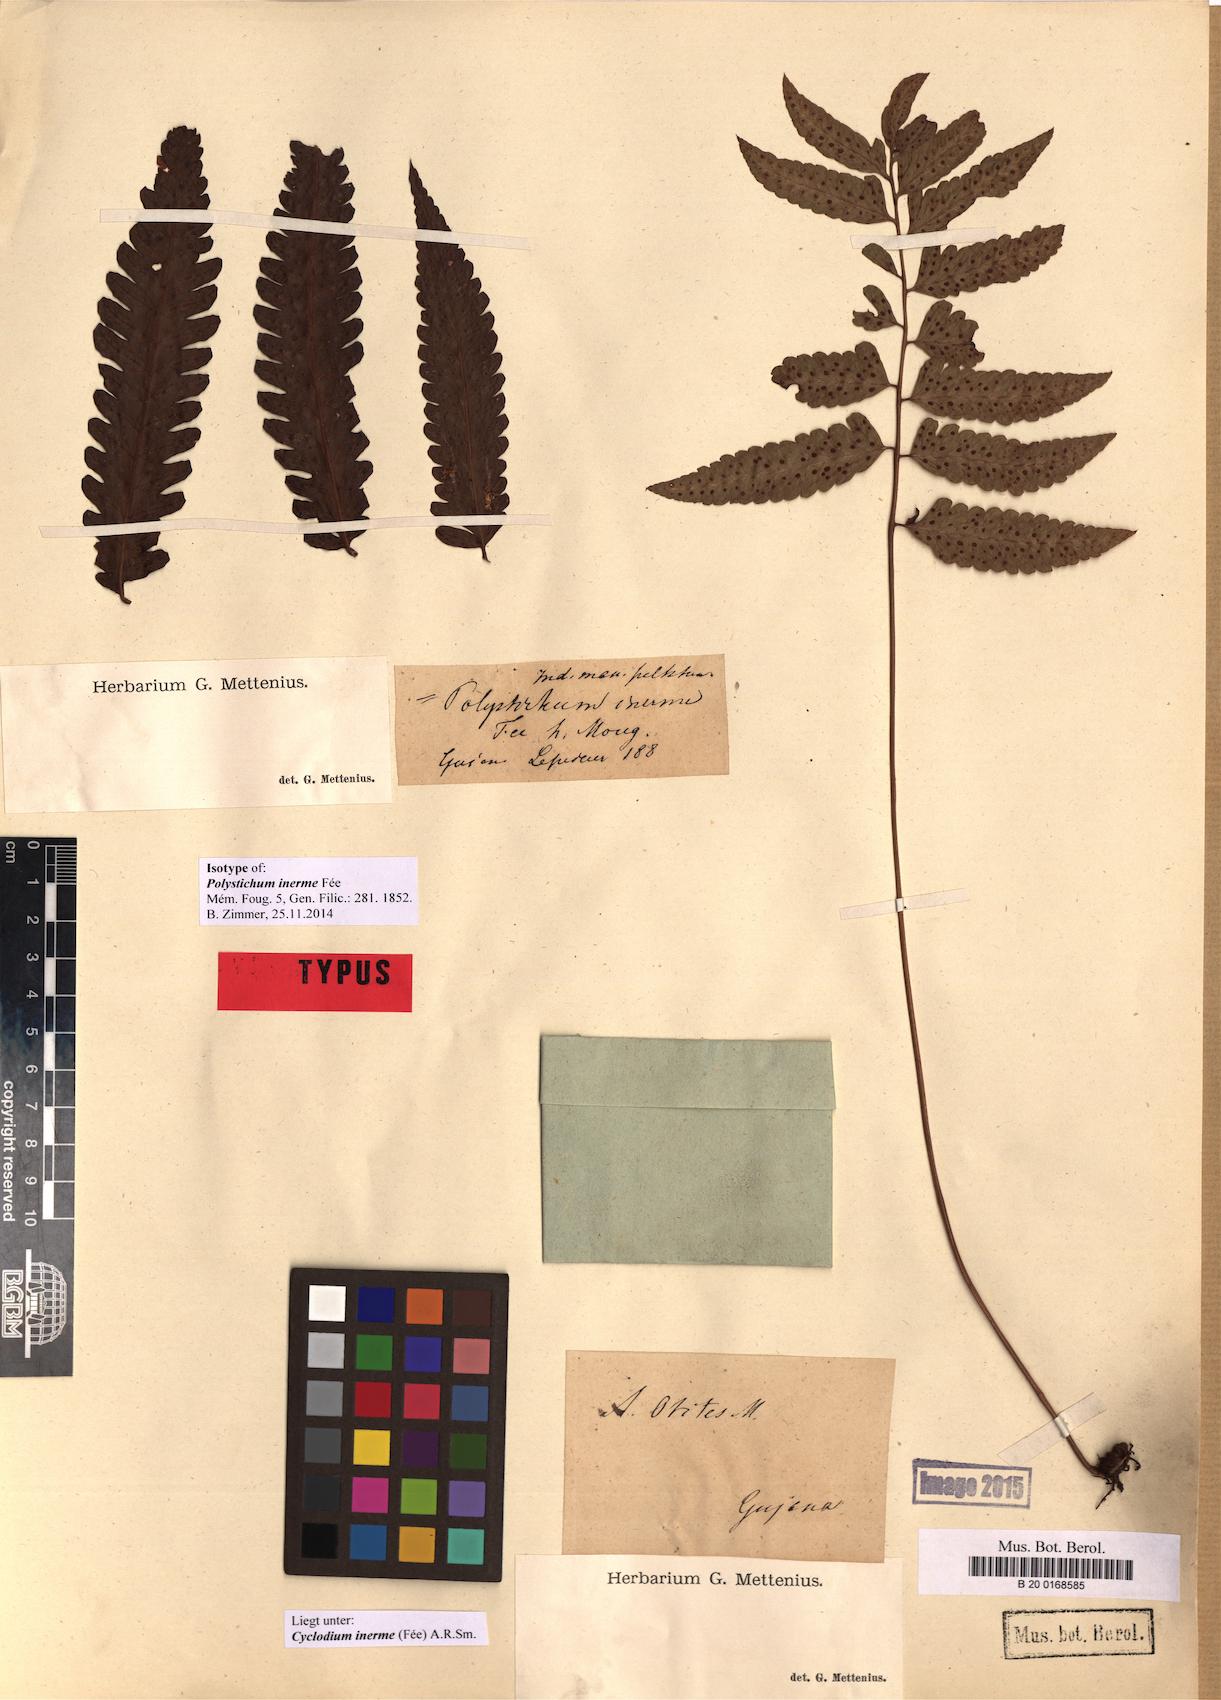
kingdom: Plantae
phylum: Tracheophyta
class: Polypodiopsida
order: Polypodiales
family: Dryopteridaceae
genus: Cyclodium
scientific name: Cyclodium inerme
